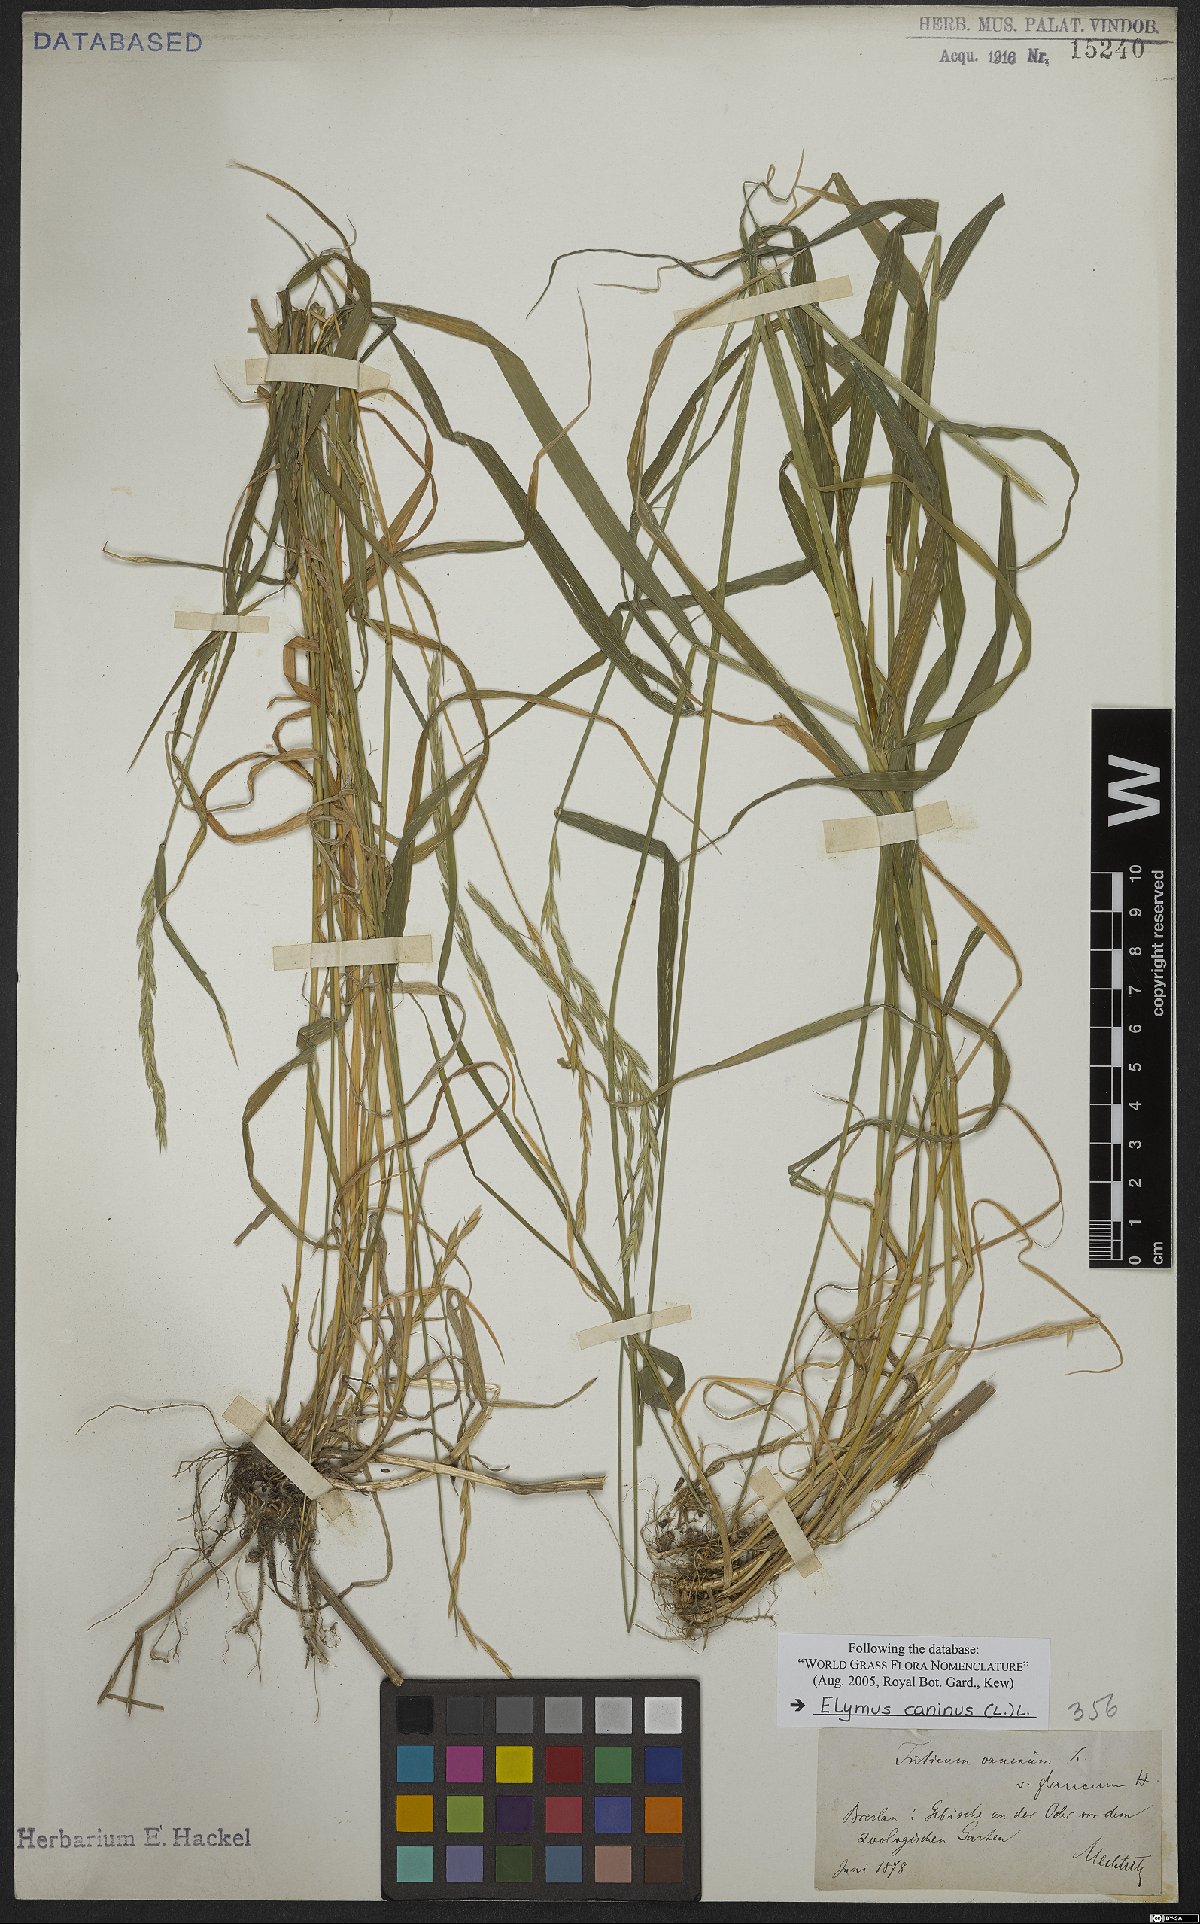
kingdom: Plantae
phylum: Tracheophyta
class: Liliopsida
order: Poales
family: Poaceae
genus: Elymus
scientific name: Elymus caninus
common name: Bearded couch
